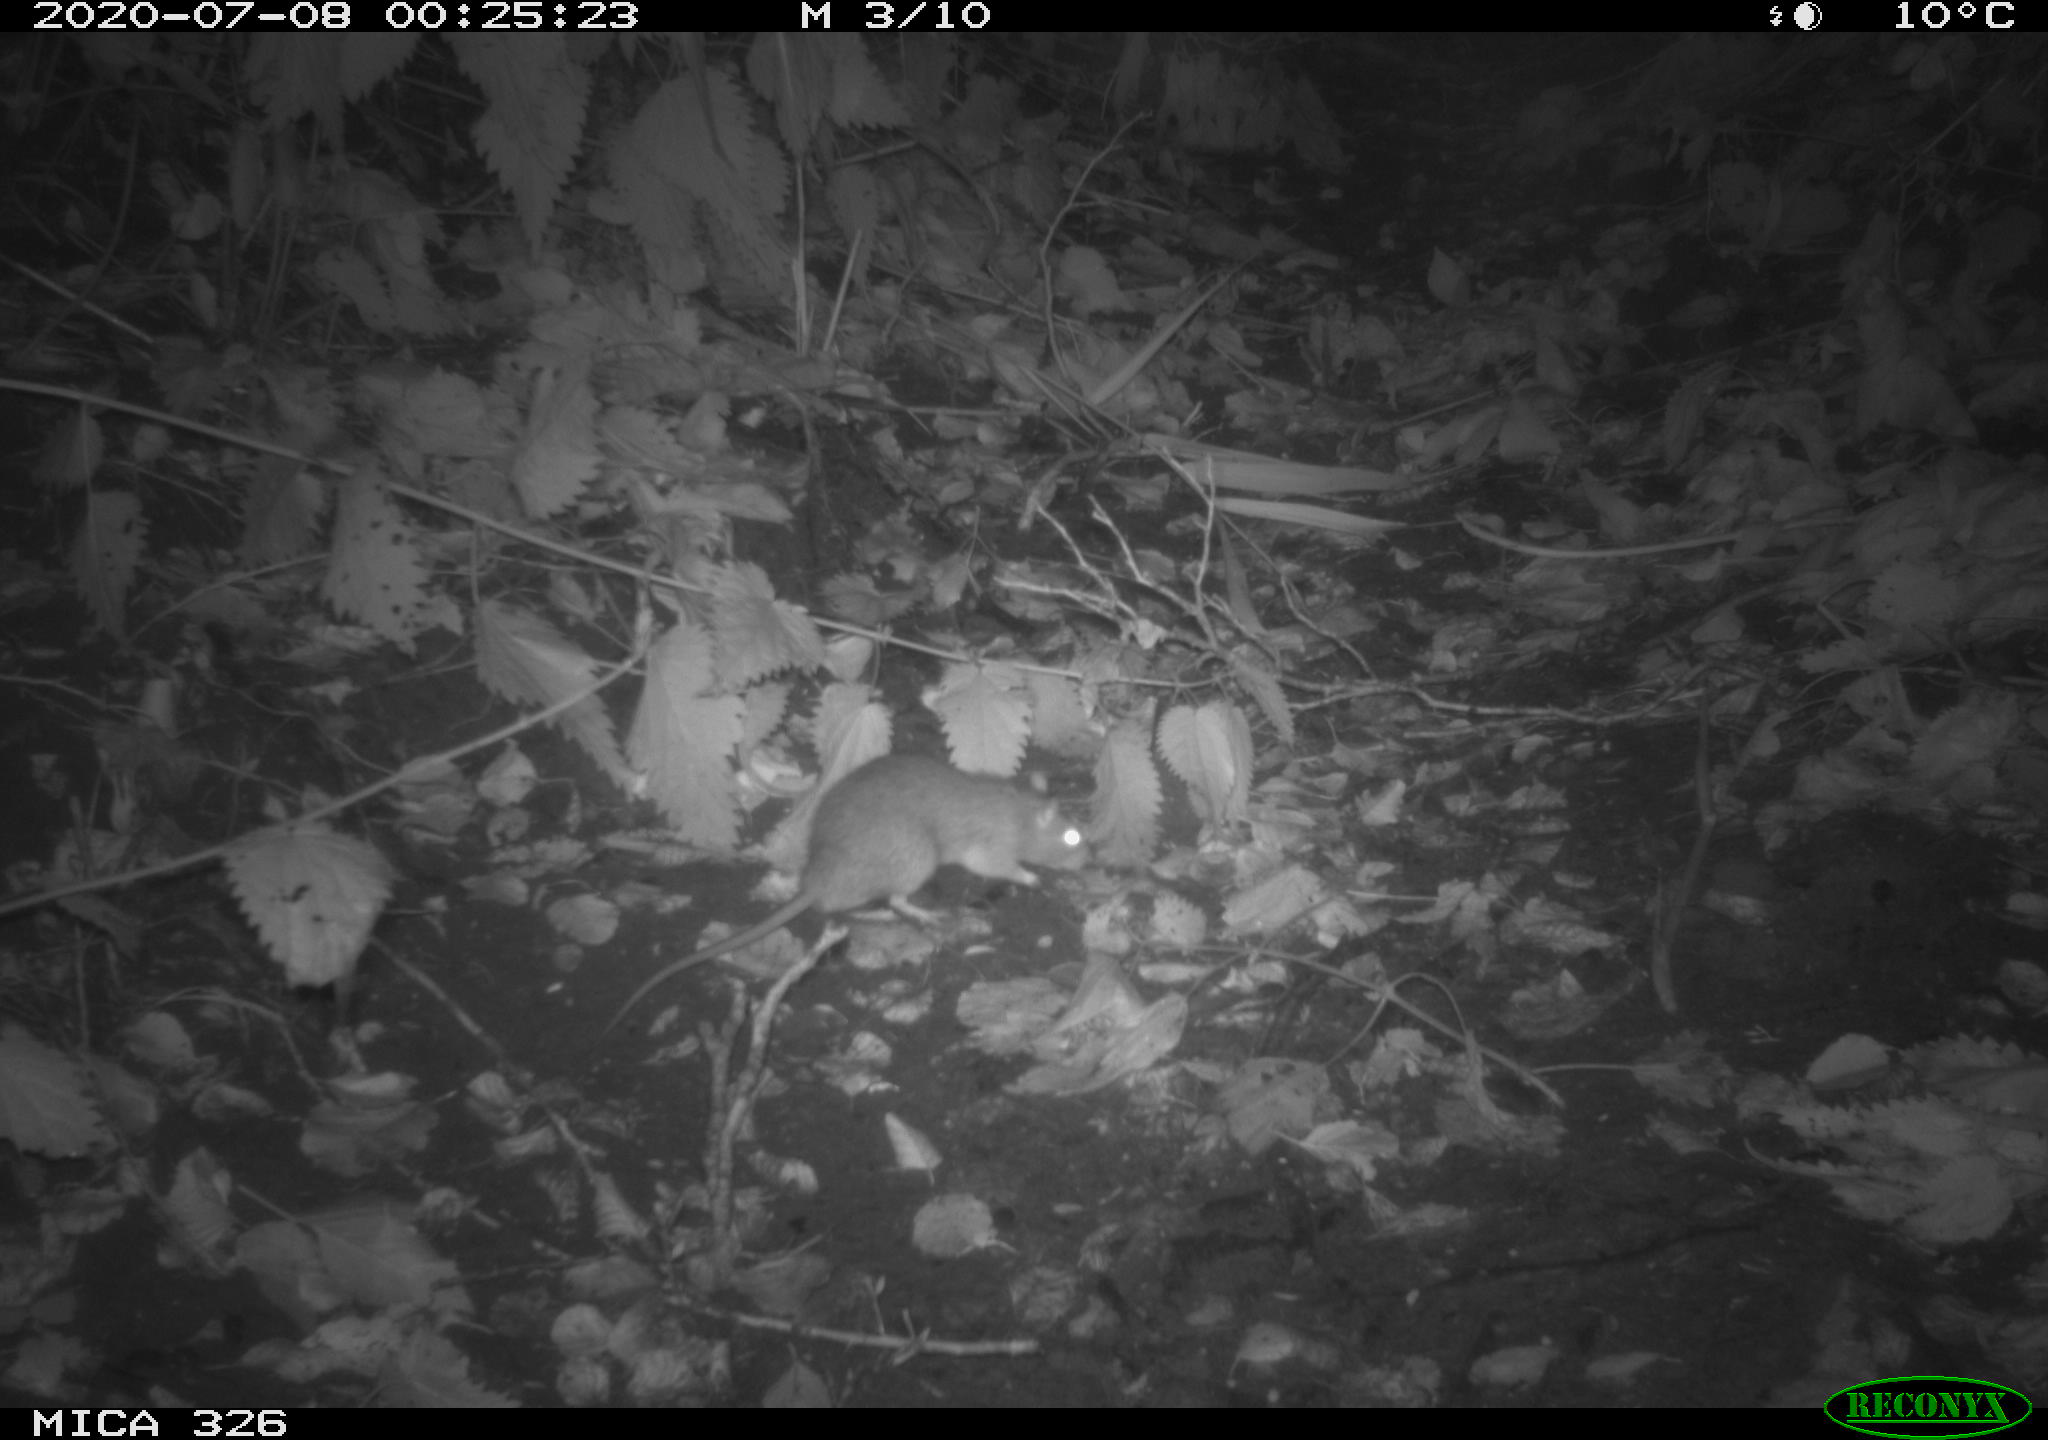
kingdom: Animalia
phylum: Chordata
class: Mammalia
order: Rodentia
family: Muridae
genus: Rattus
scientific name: Rattus norvegicus
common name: Brown rat
